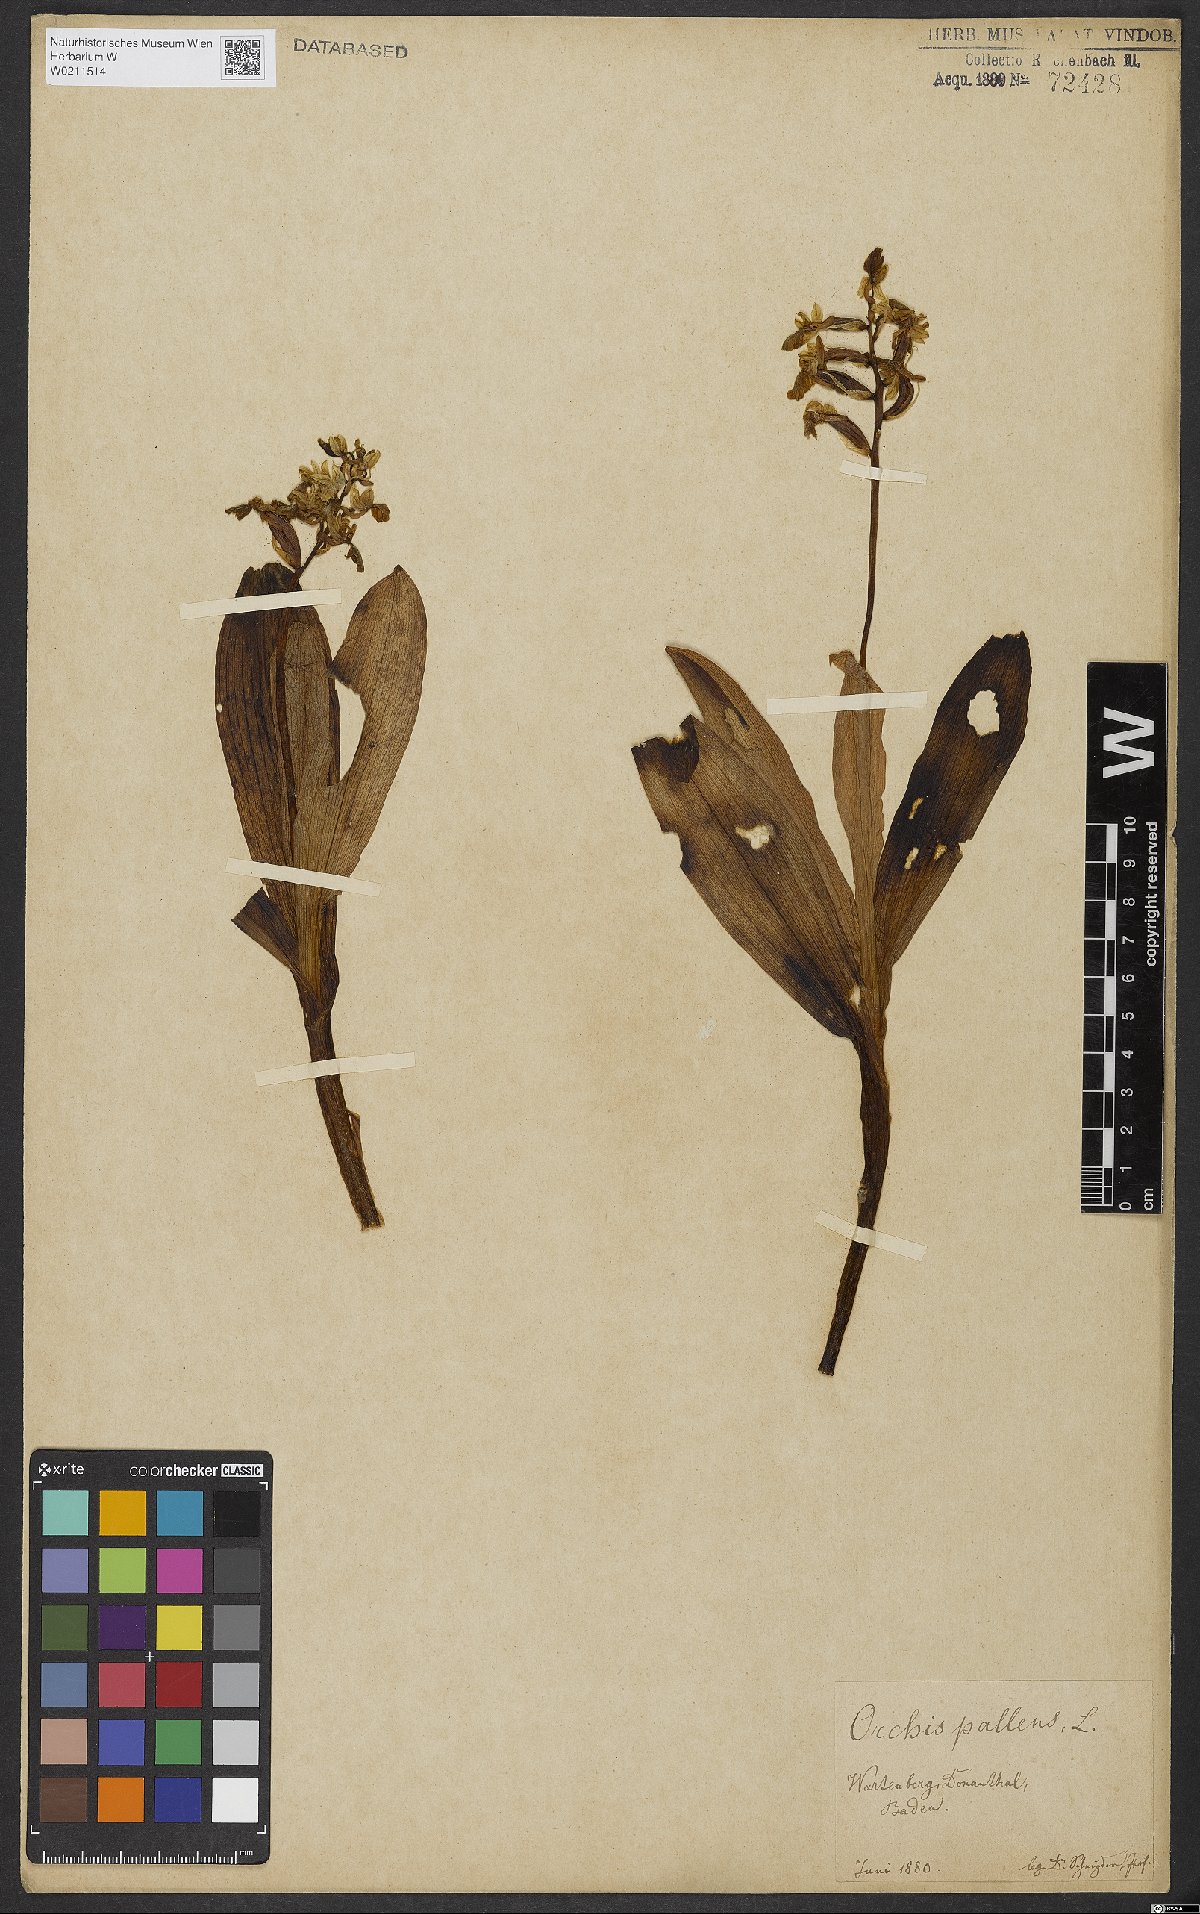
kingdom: Plantae
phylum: Tracheophyta
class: Liliopsida
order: Asparagales
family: Orchidaceae
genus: Orchis
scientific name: Orchis pallens
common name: Pale-flowered orchid
